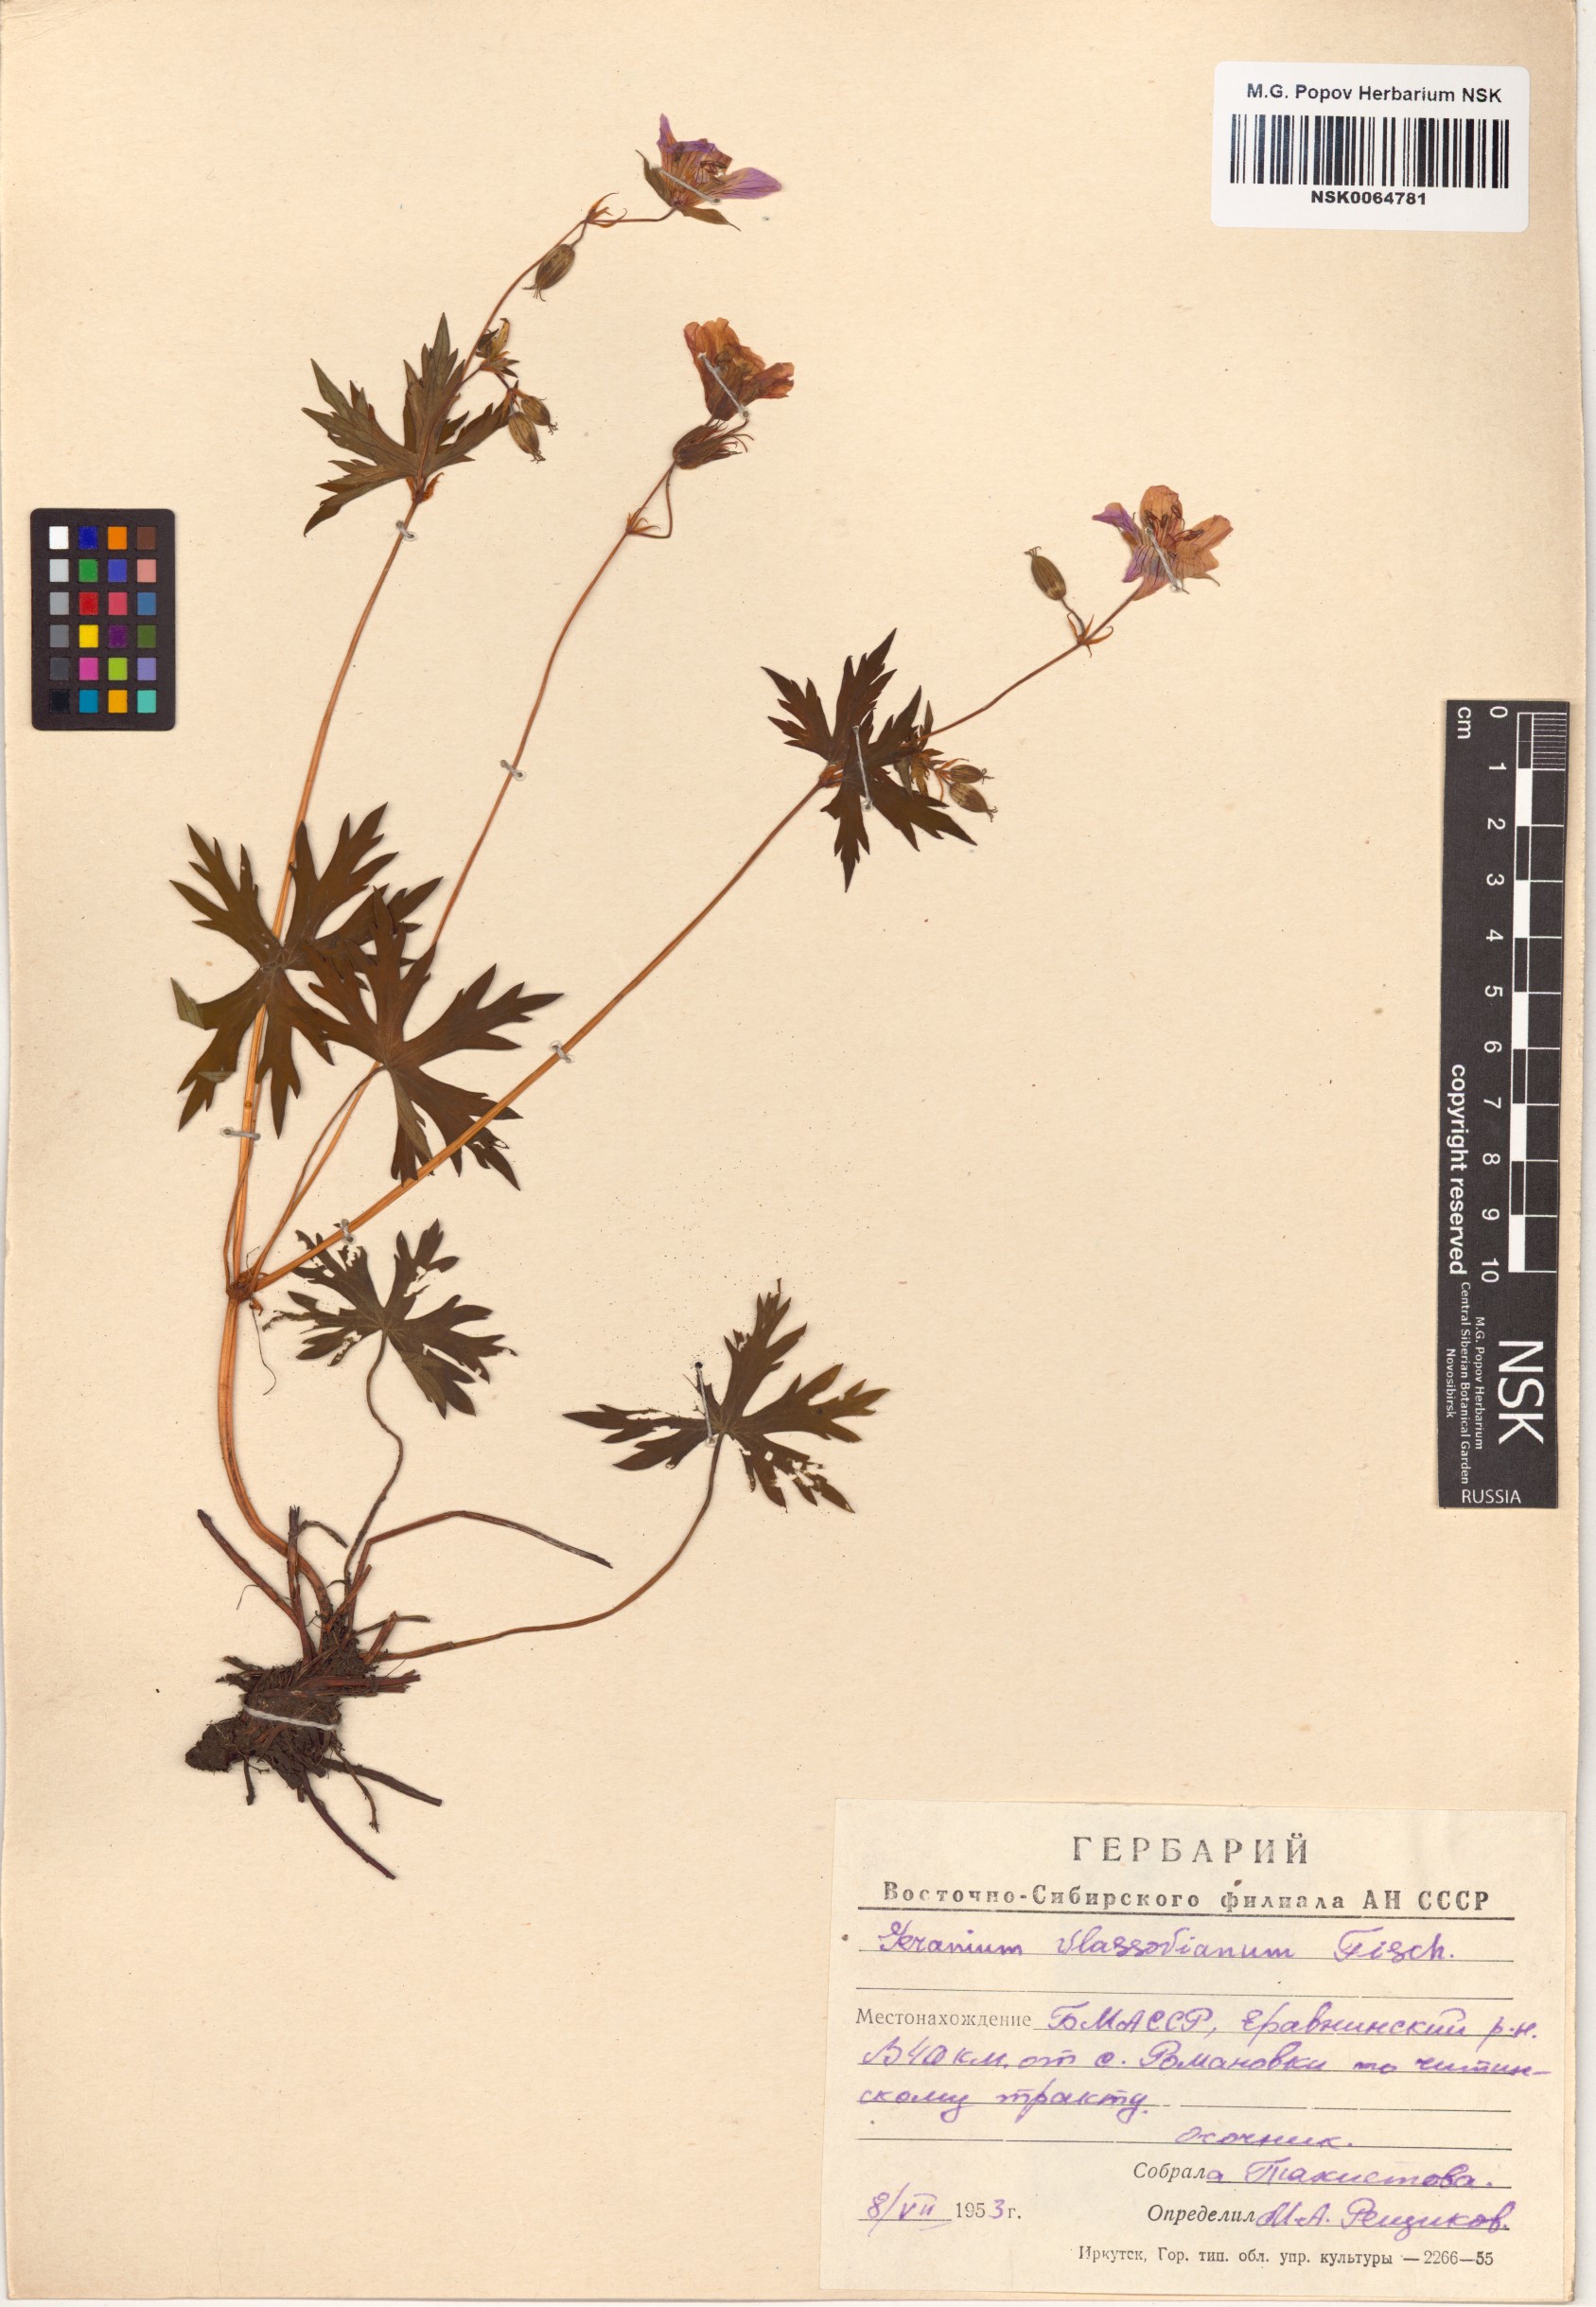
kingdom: Plantae
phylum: Tracheophyta
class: Magnoliopsida
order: Geraniales
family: Geraniaceae
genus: Geranium
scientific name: Geranium wlassovianum
